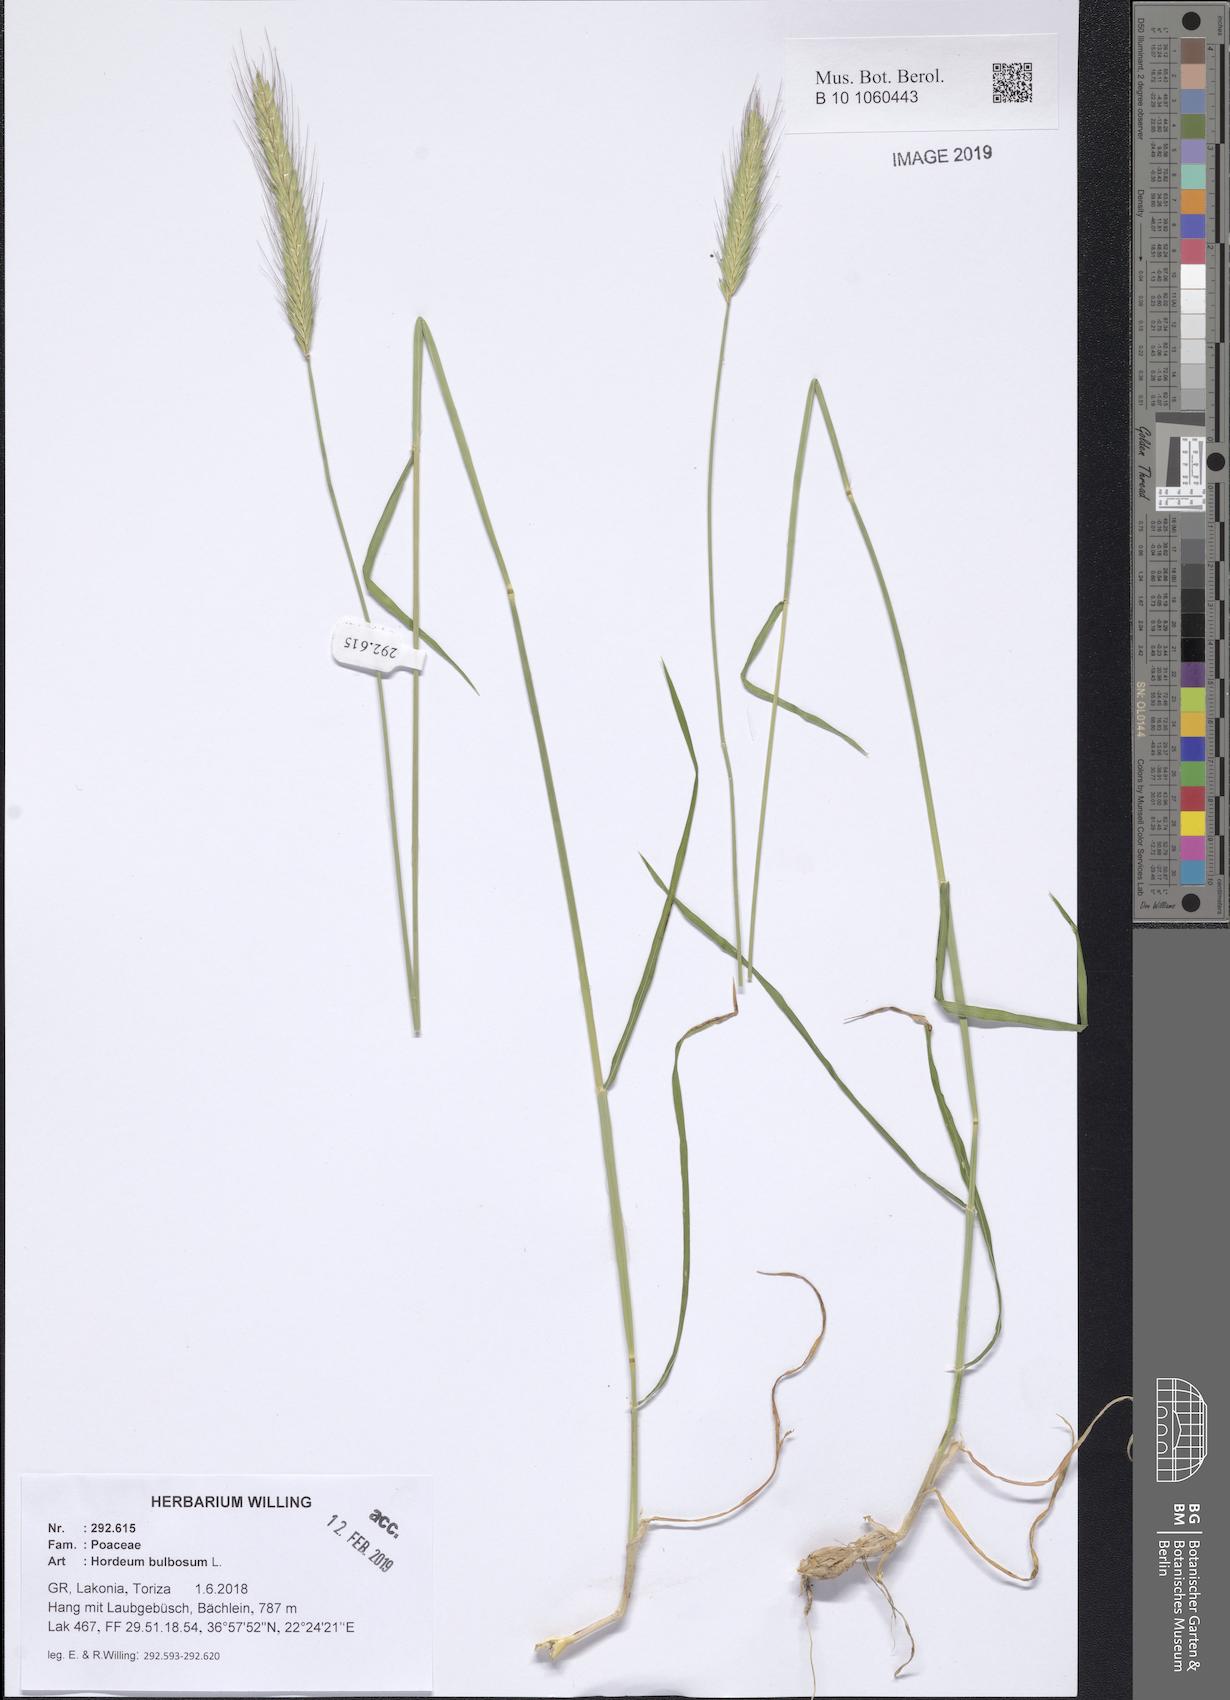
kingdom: Plantae
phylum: Tracheophyta
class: Liliopsida
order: Poales
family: Poaceae
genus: Hordeum
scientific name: Hordeum bulbosum
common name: Bulbous barley
